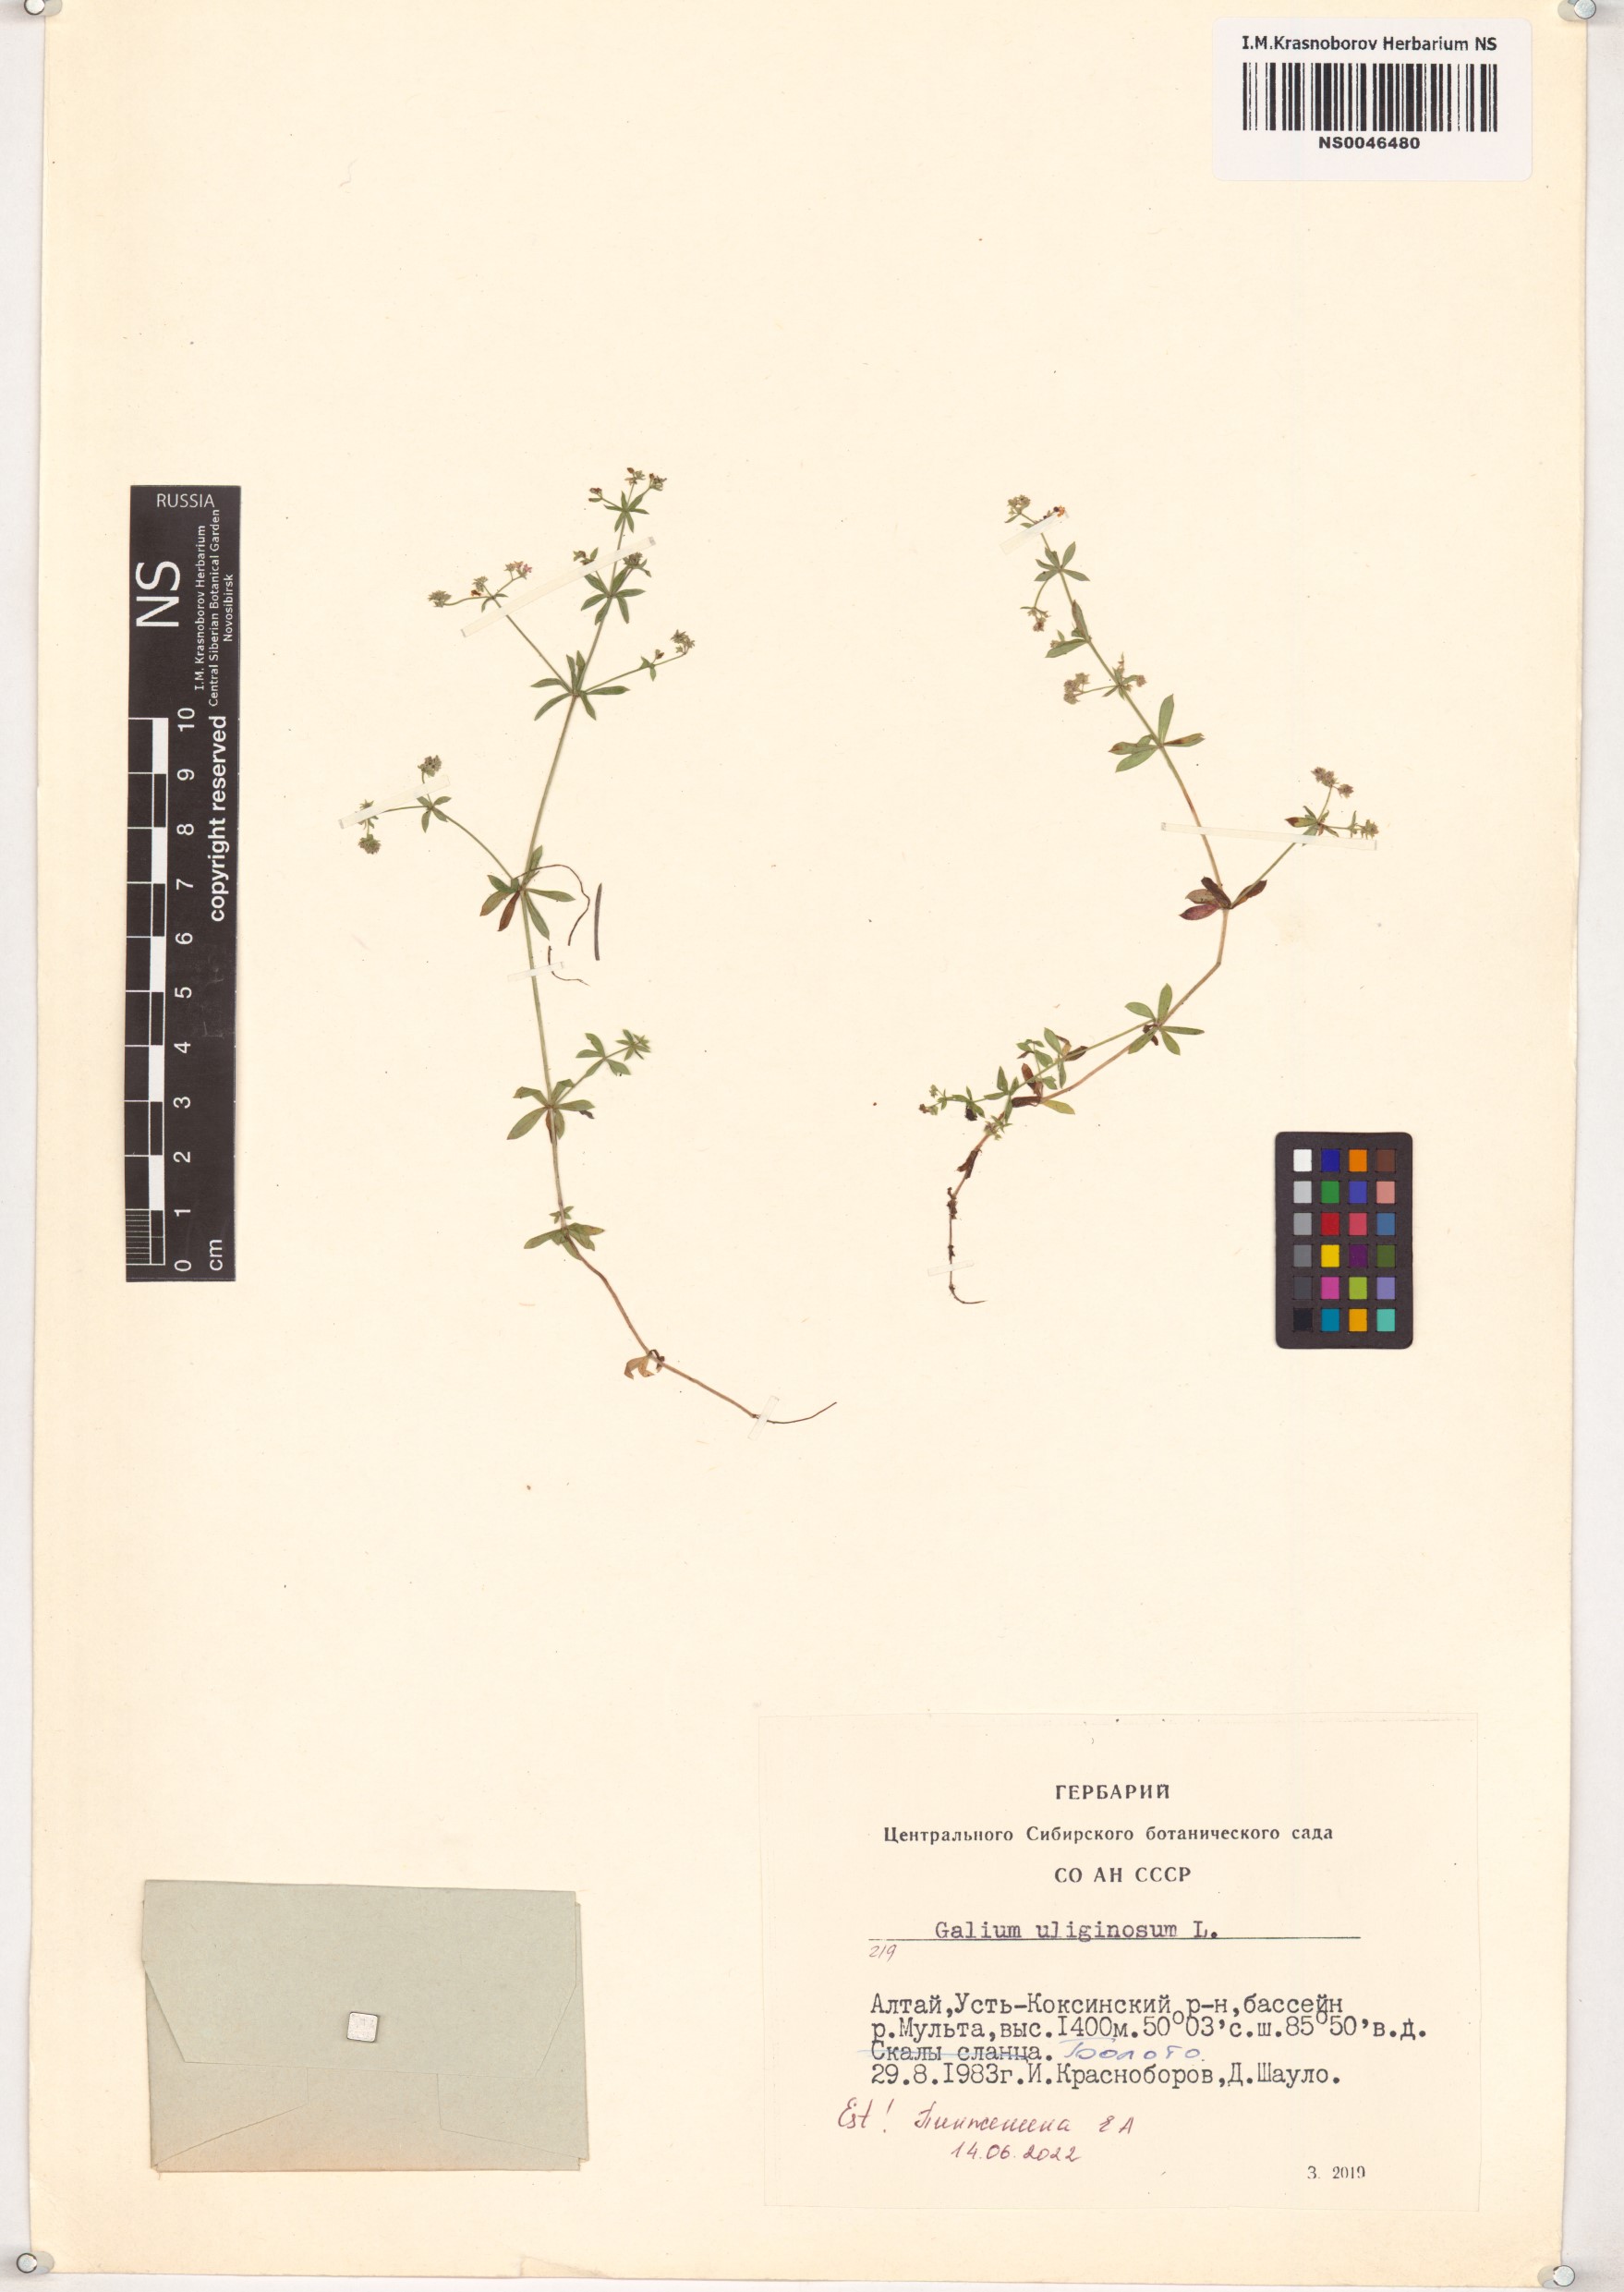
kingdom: Plantae
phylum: Tracheophyta
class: Magnoliopsida
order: Gentianales
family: Rubiaceae
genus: Galium
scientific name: Galium uliginosum
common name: Fen bedstraw
